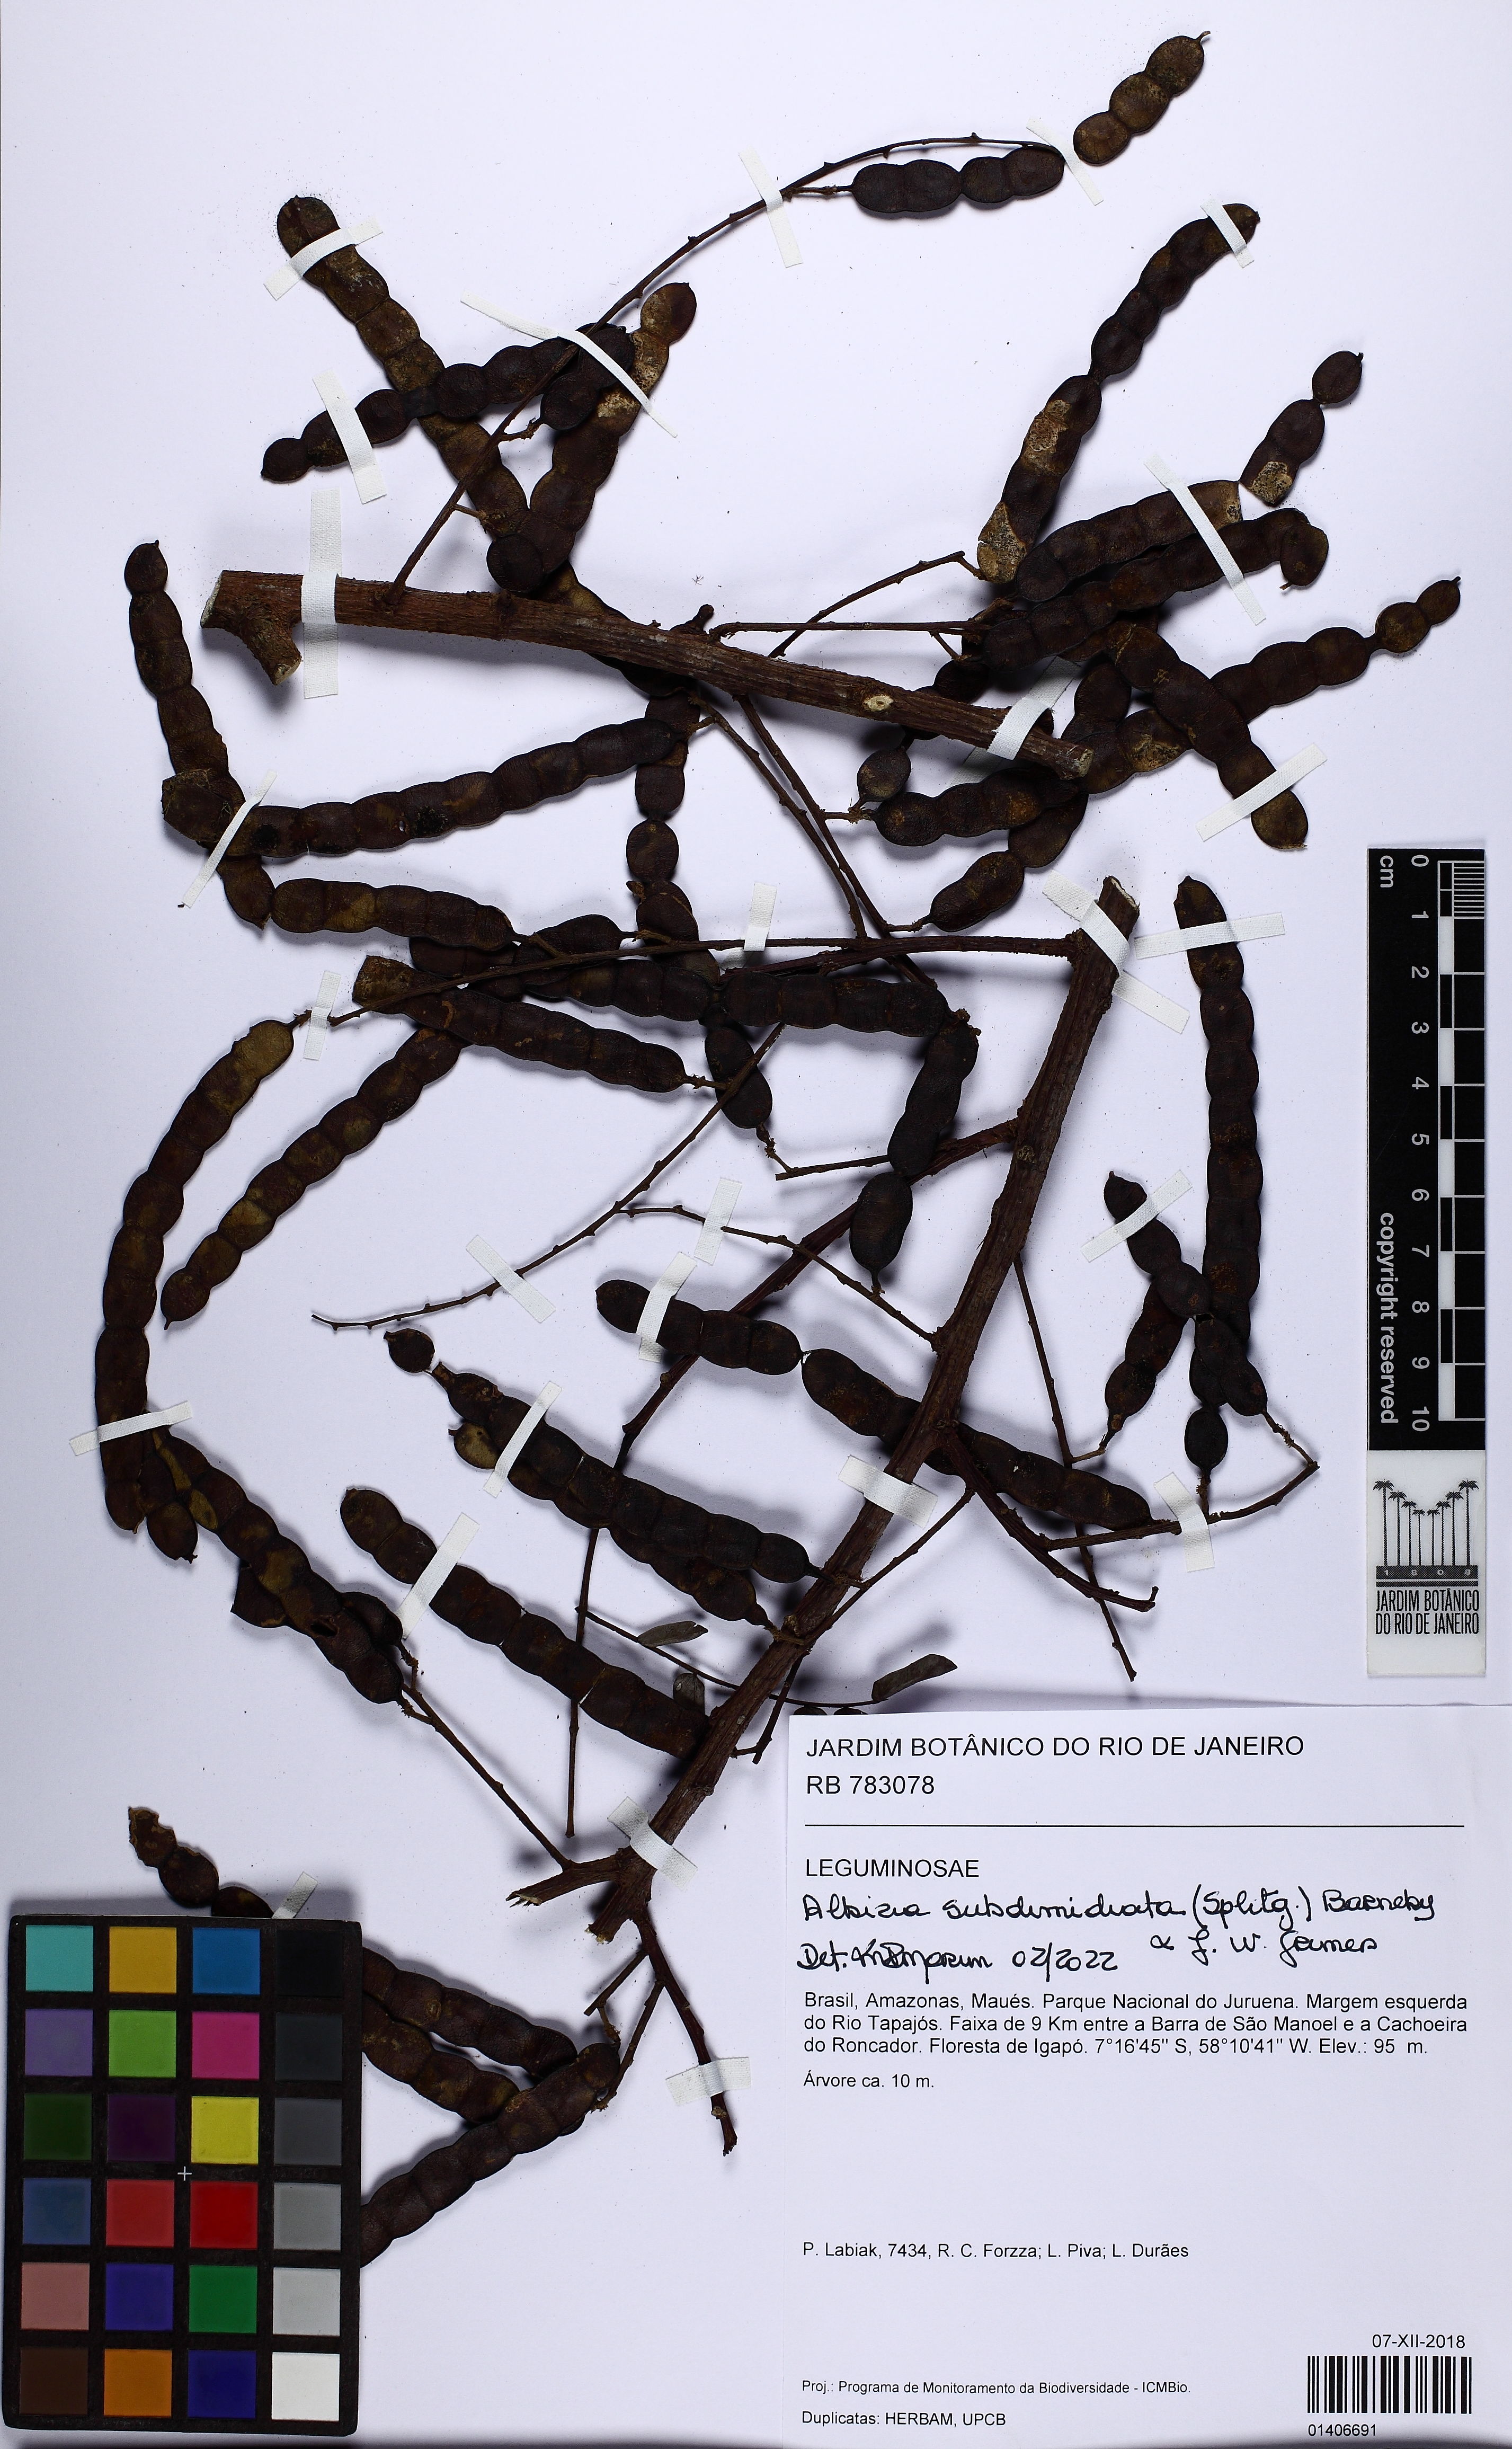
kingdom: Plantae
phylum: Tracheophyta
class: Magnoliopsida
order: Fabales
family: Fabaceae
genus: Albizia
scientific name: Albizia subdimidiata
